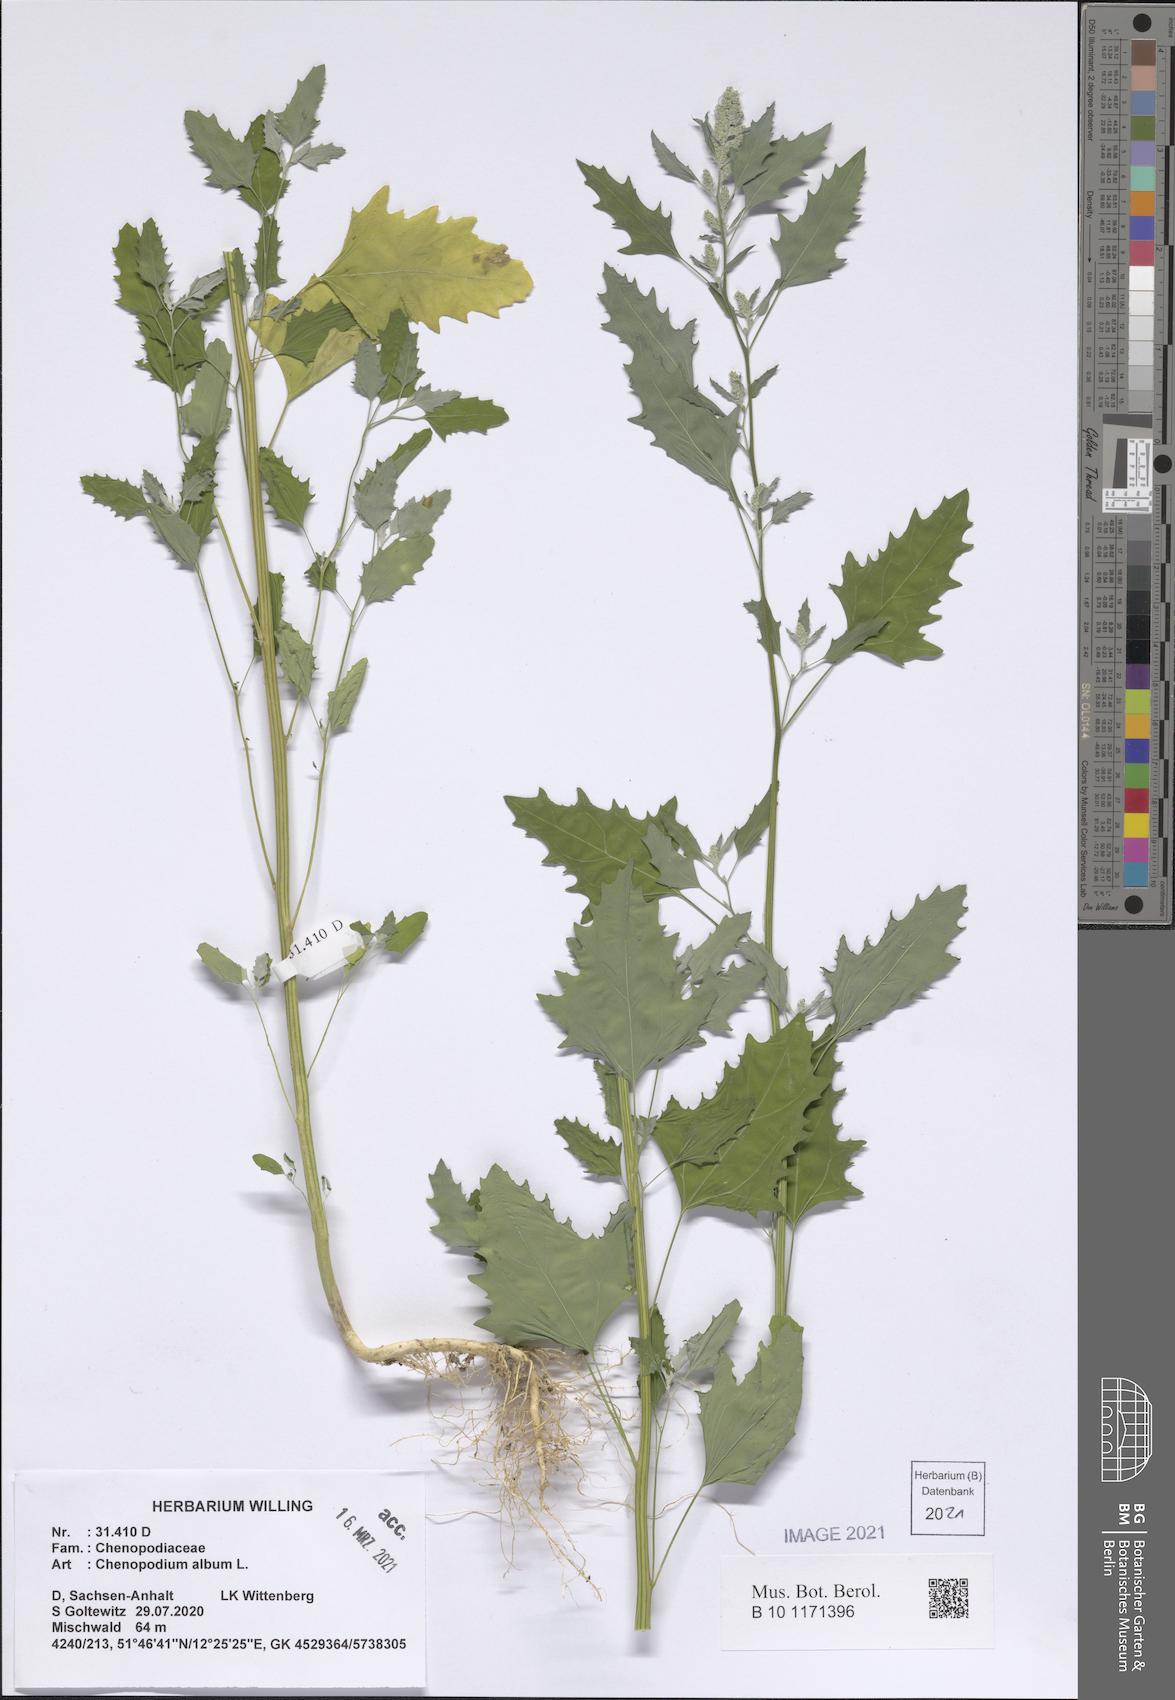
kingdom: Plantae
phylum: Tracheophyta
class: Magnoliopsida
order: Caryophyllales
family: Amaranthaceae
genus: Chenopodium
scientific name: Chenopodium album
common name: Fat-hen
